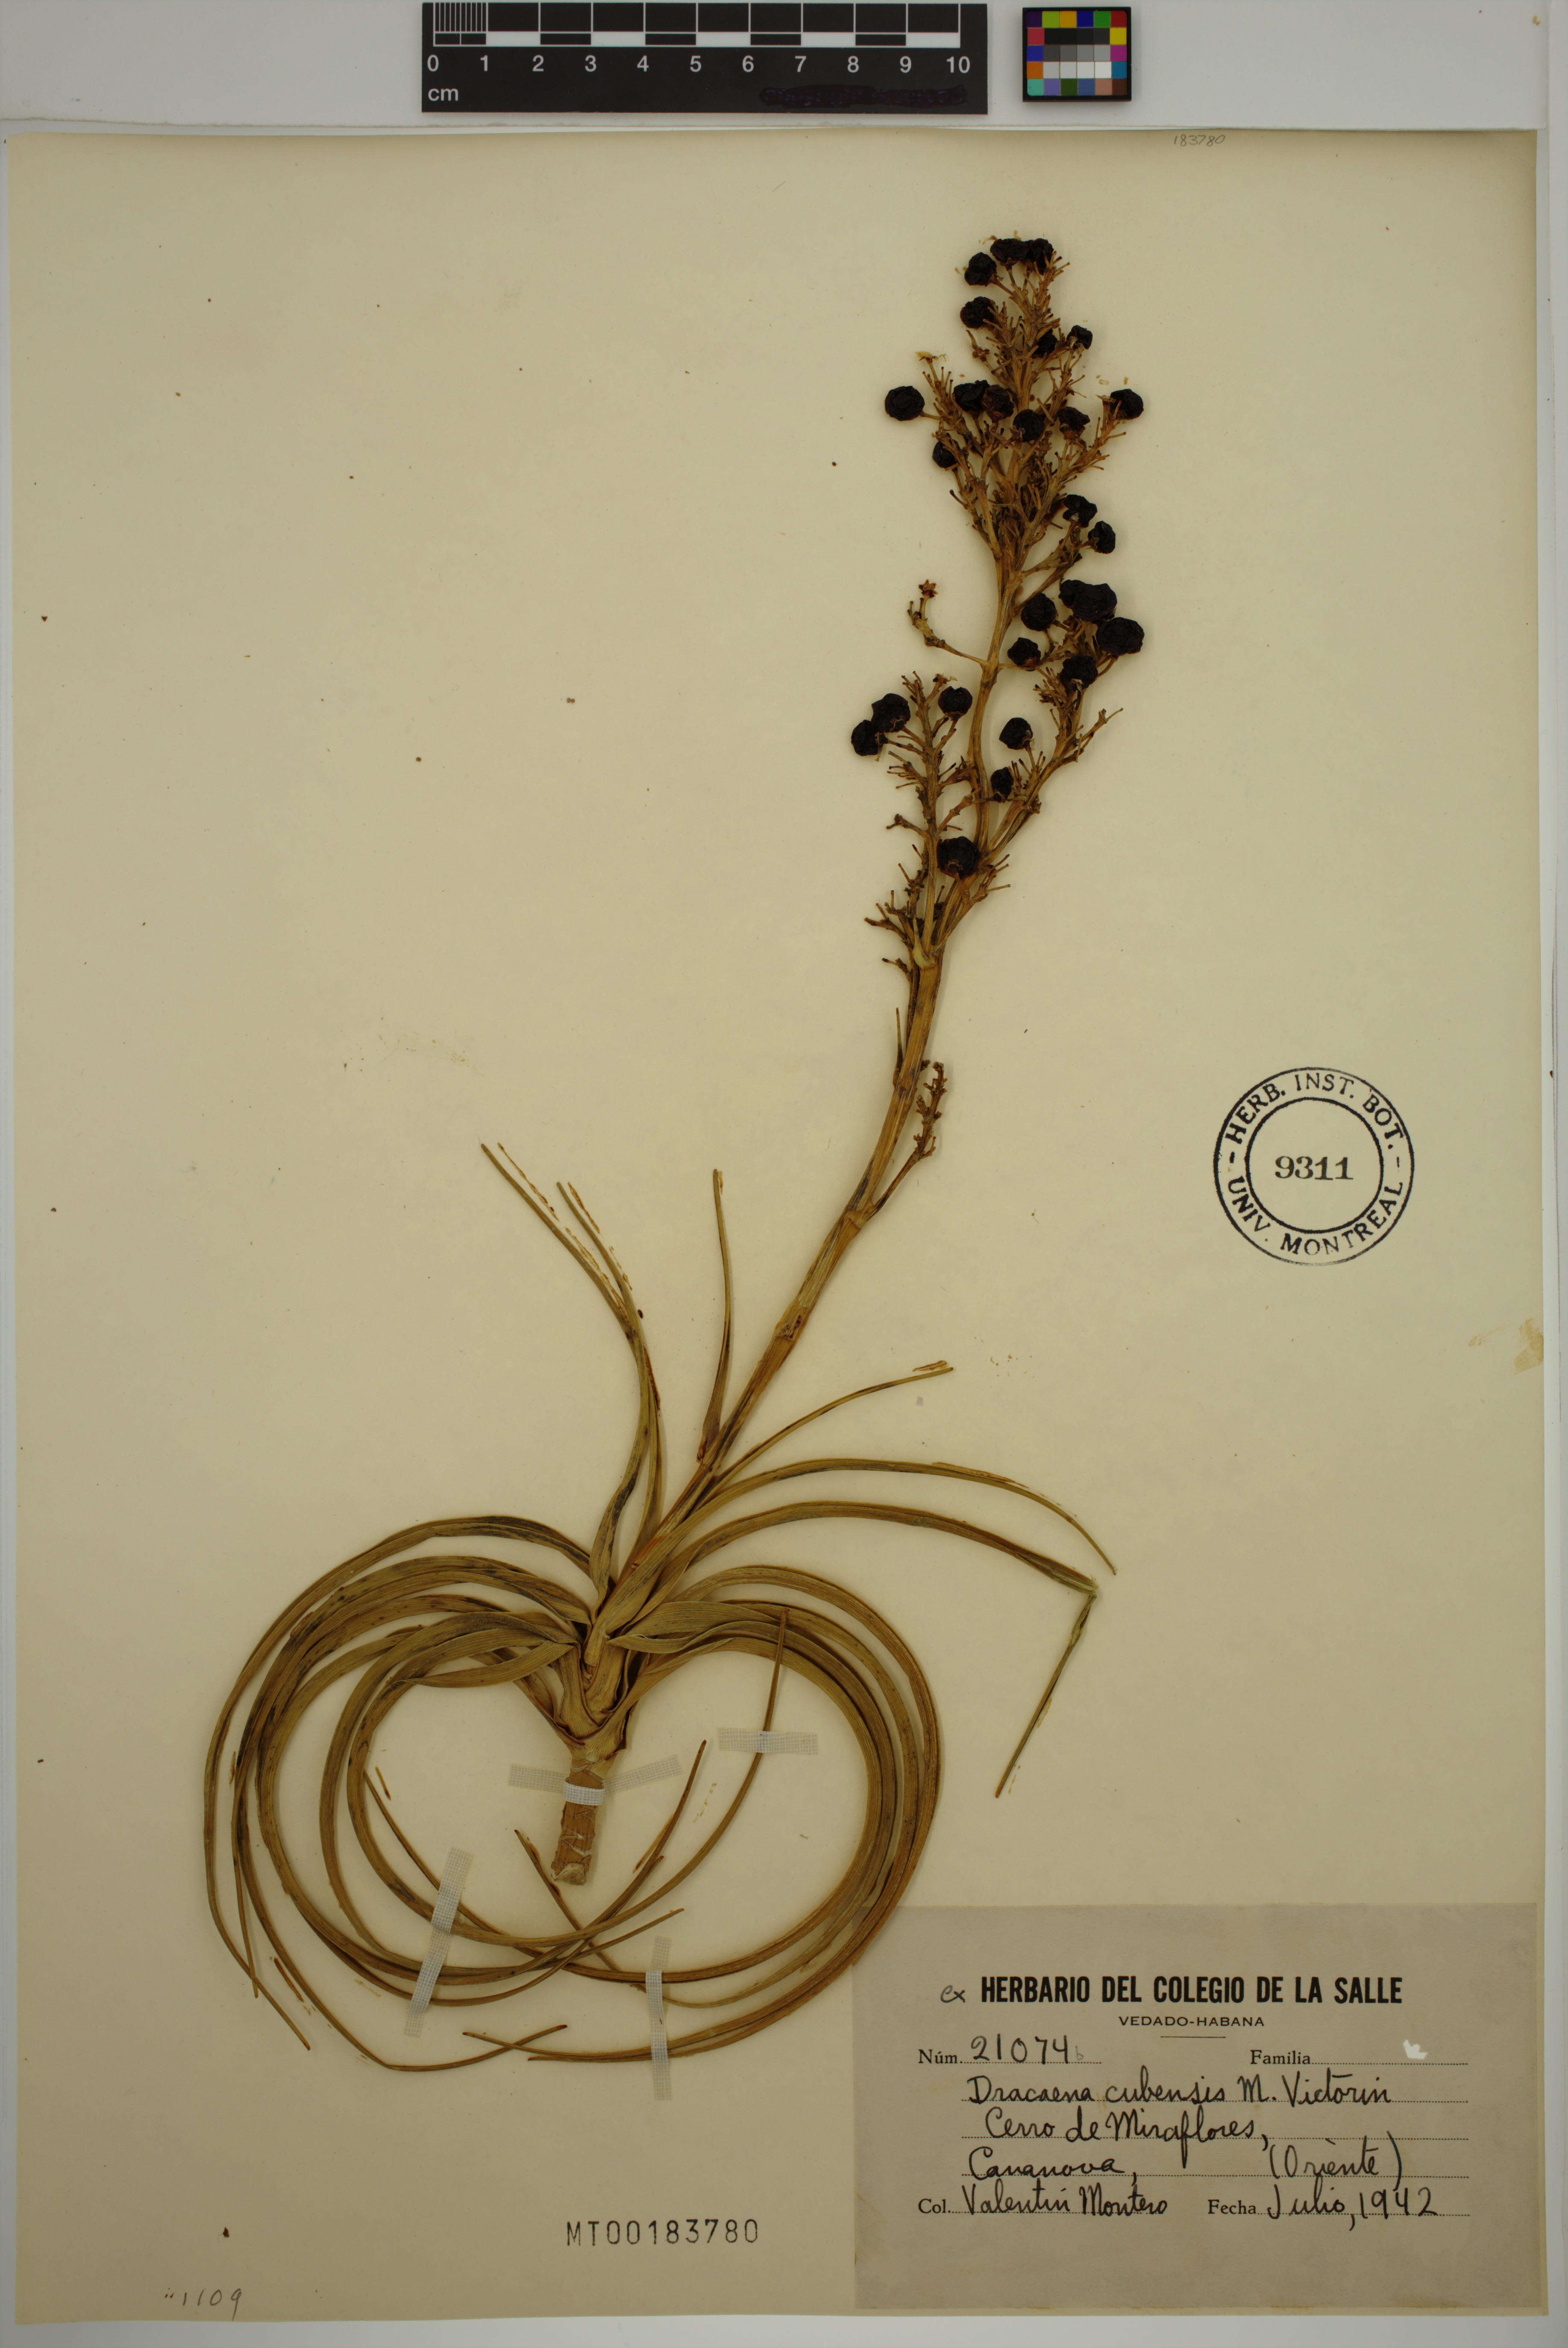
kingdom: Plantae
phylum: Tracheophyta
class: Liliopsida
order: Asparagales
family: Asparagaceae
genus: Dracaena
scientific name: Dracaena cubensis
